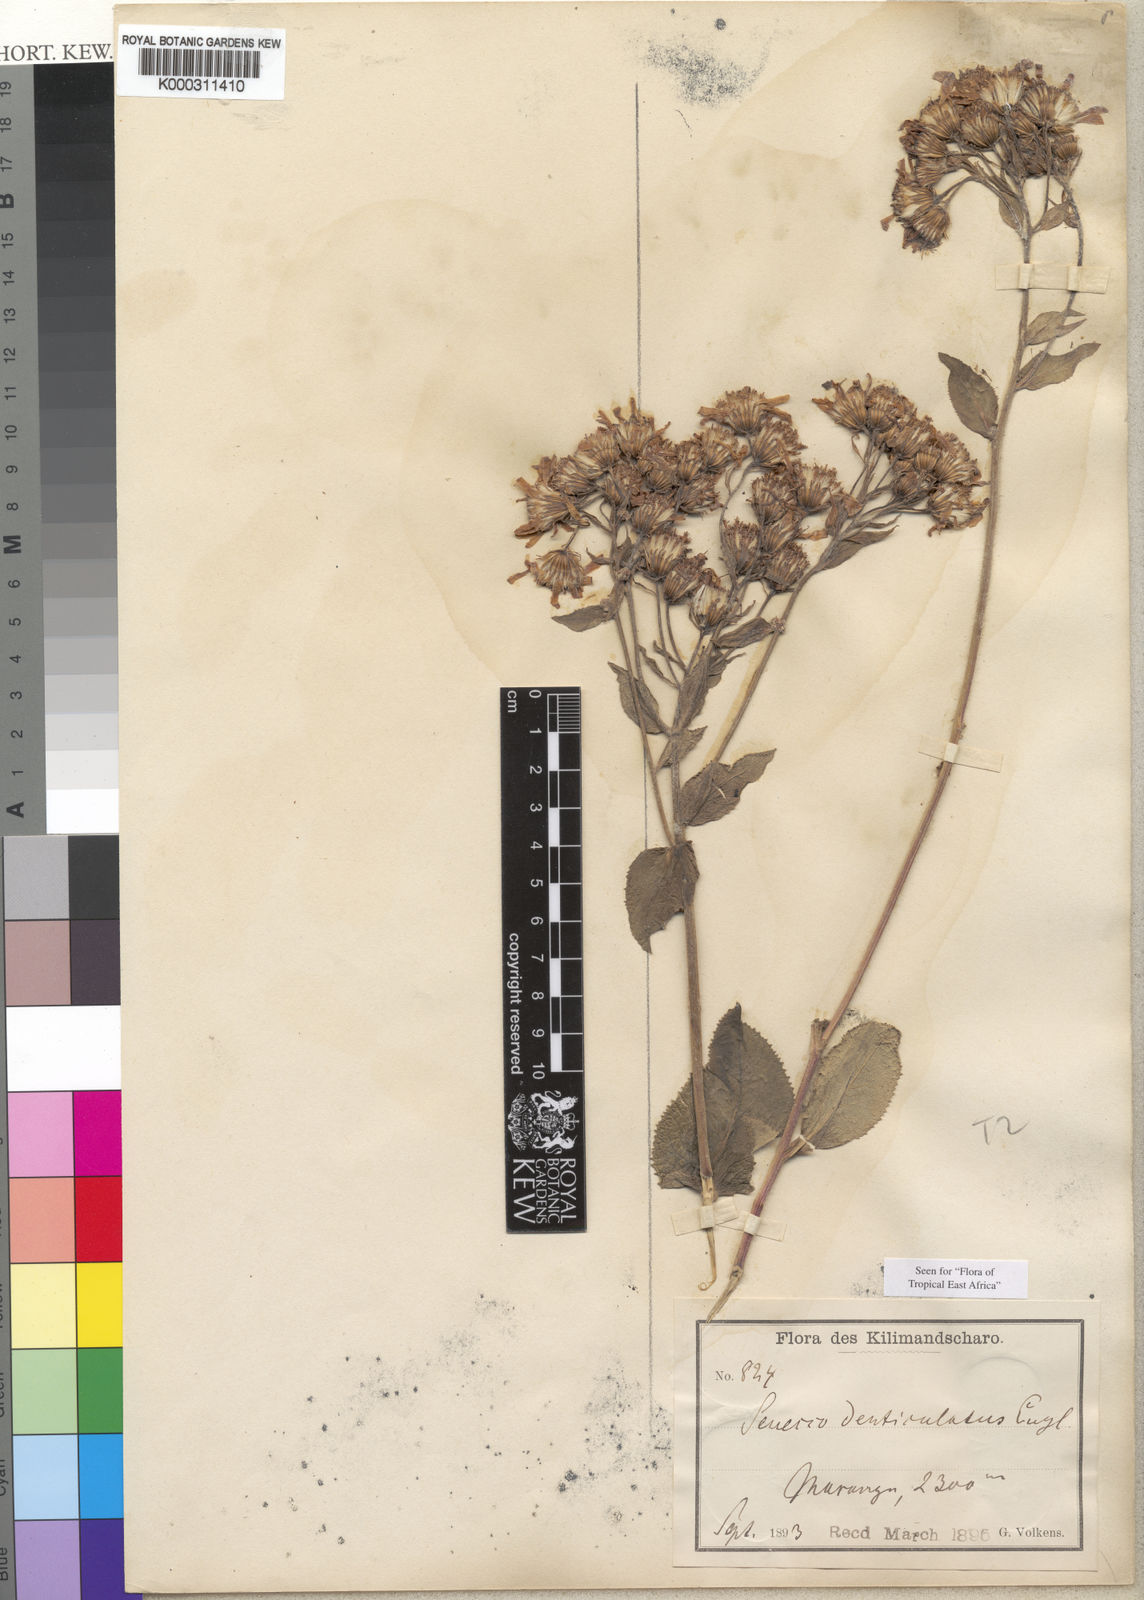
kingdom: Plantae
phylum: Tracheophyta
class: Magnoliopsida
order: Asterales
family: Asteraceae
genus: Senecio
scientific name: Senecio subsessilis
